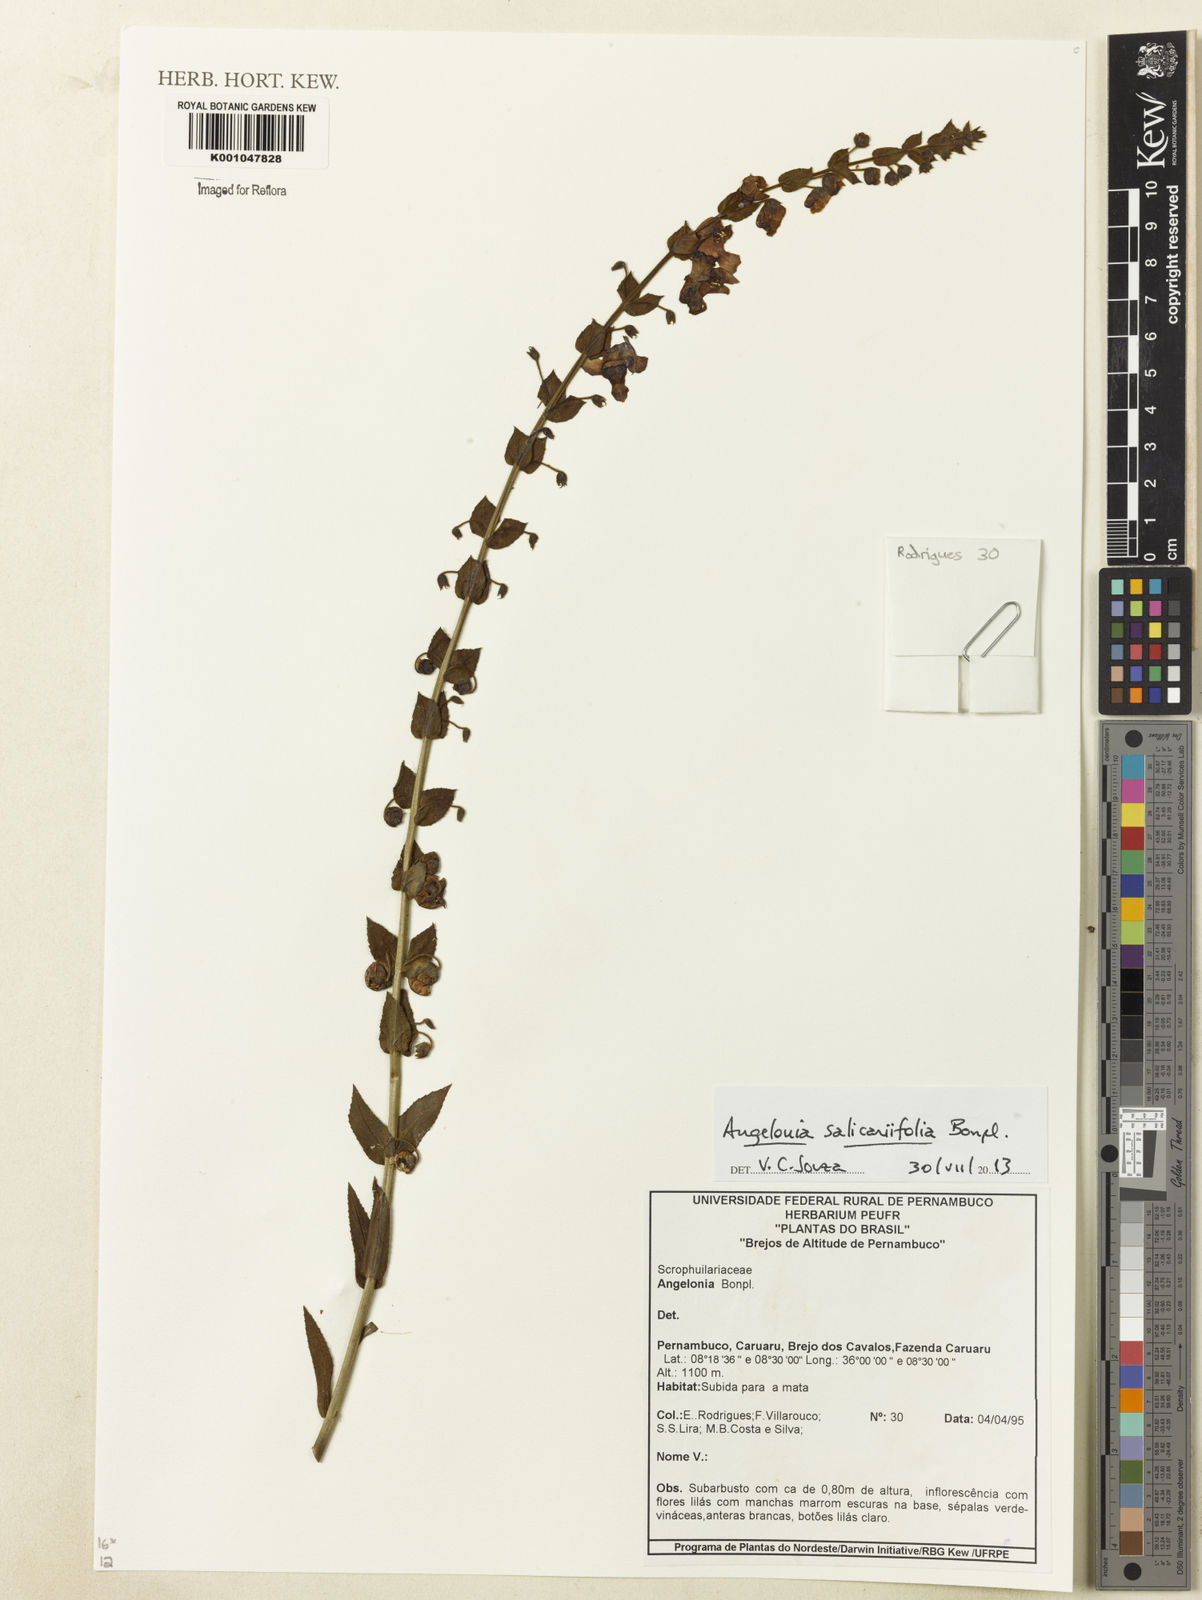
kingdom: Plantae
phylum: Tracheophyta
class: Magnoliopsida
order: Lamiales
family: Plantaginaceae
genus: Angelonia
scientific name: Angelonia salicariifolia
